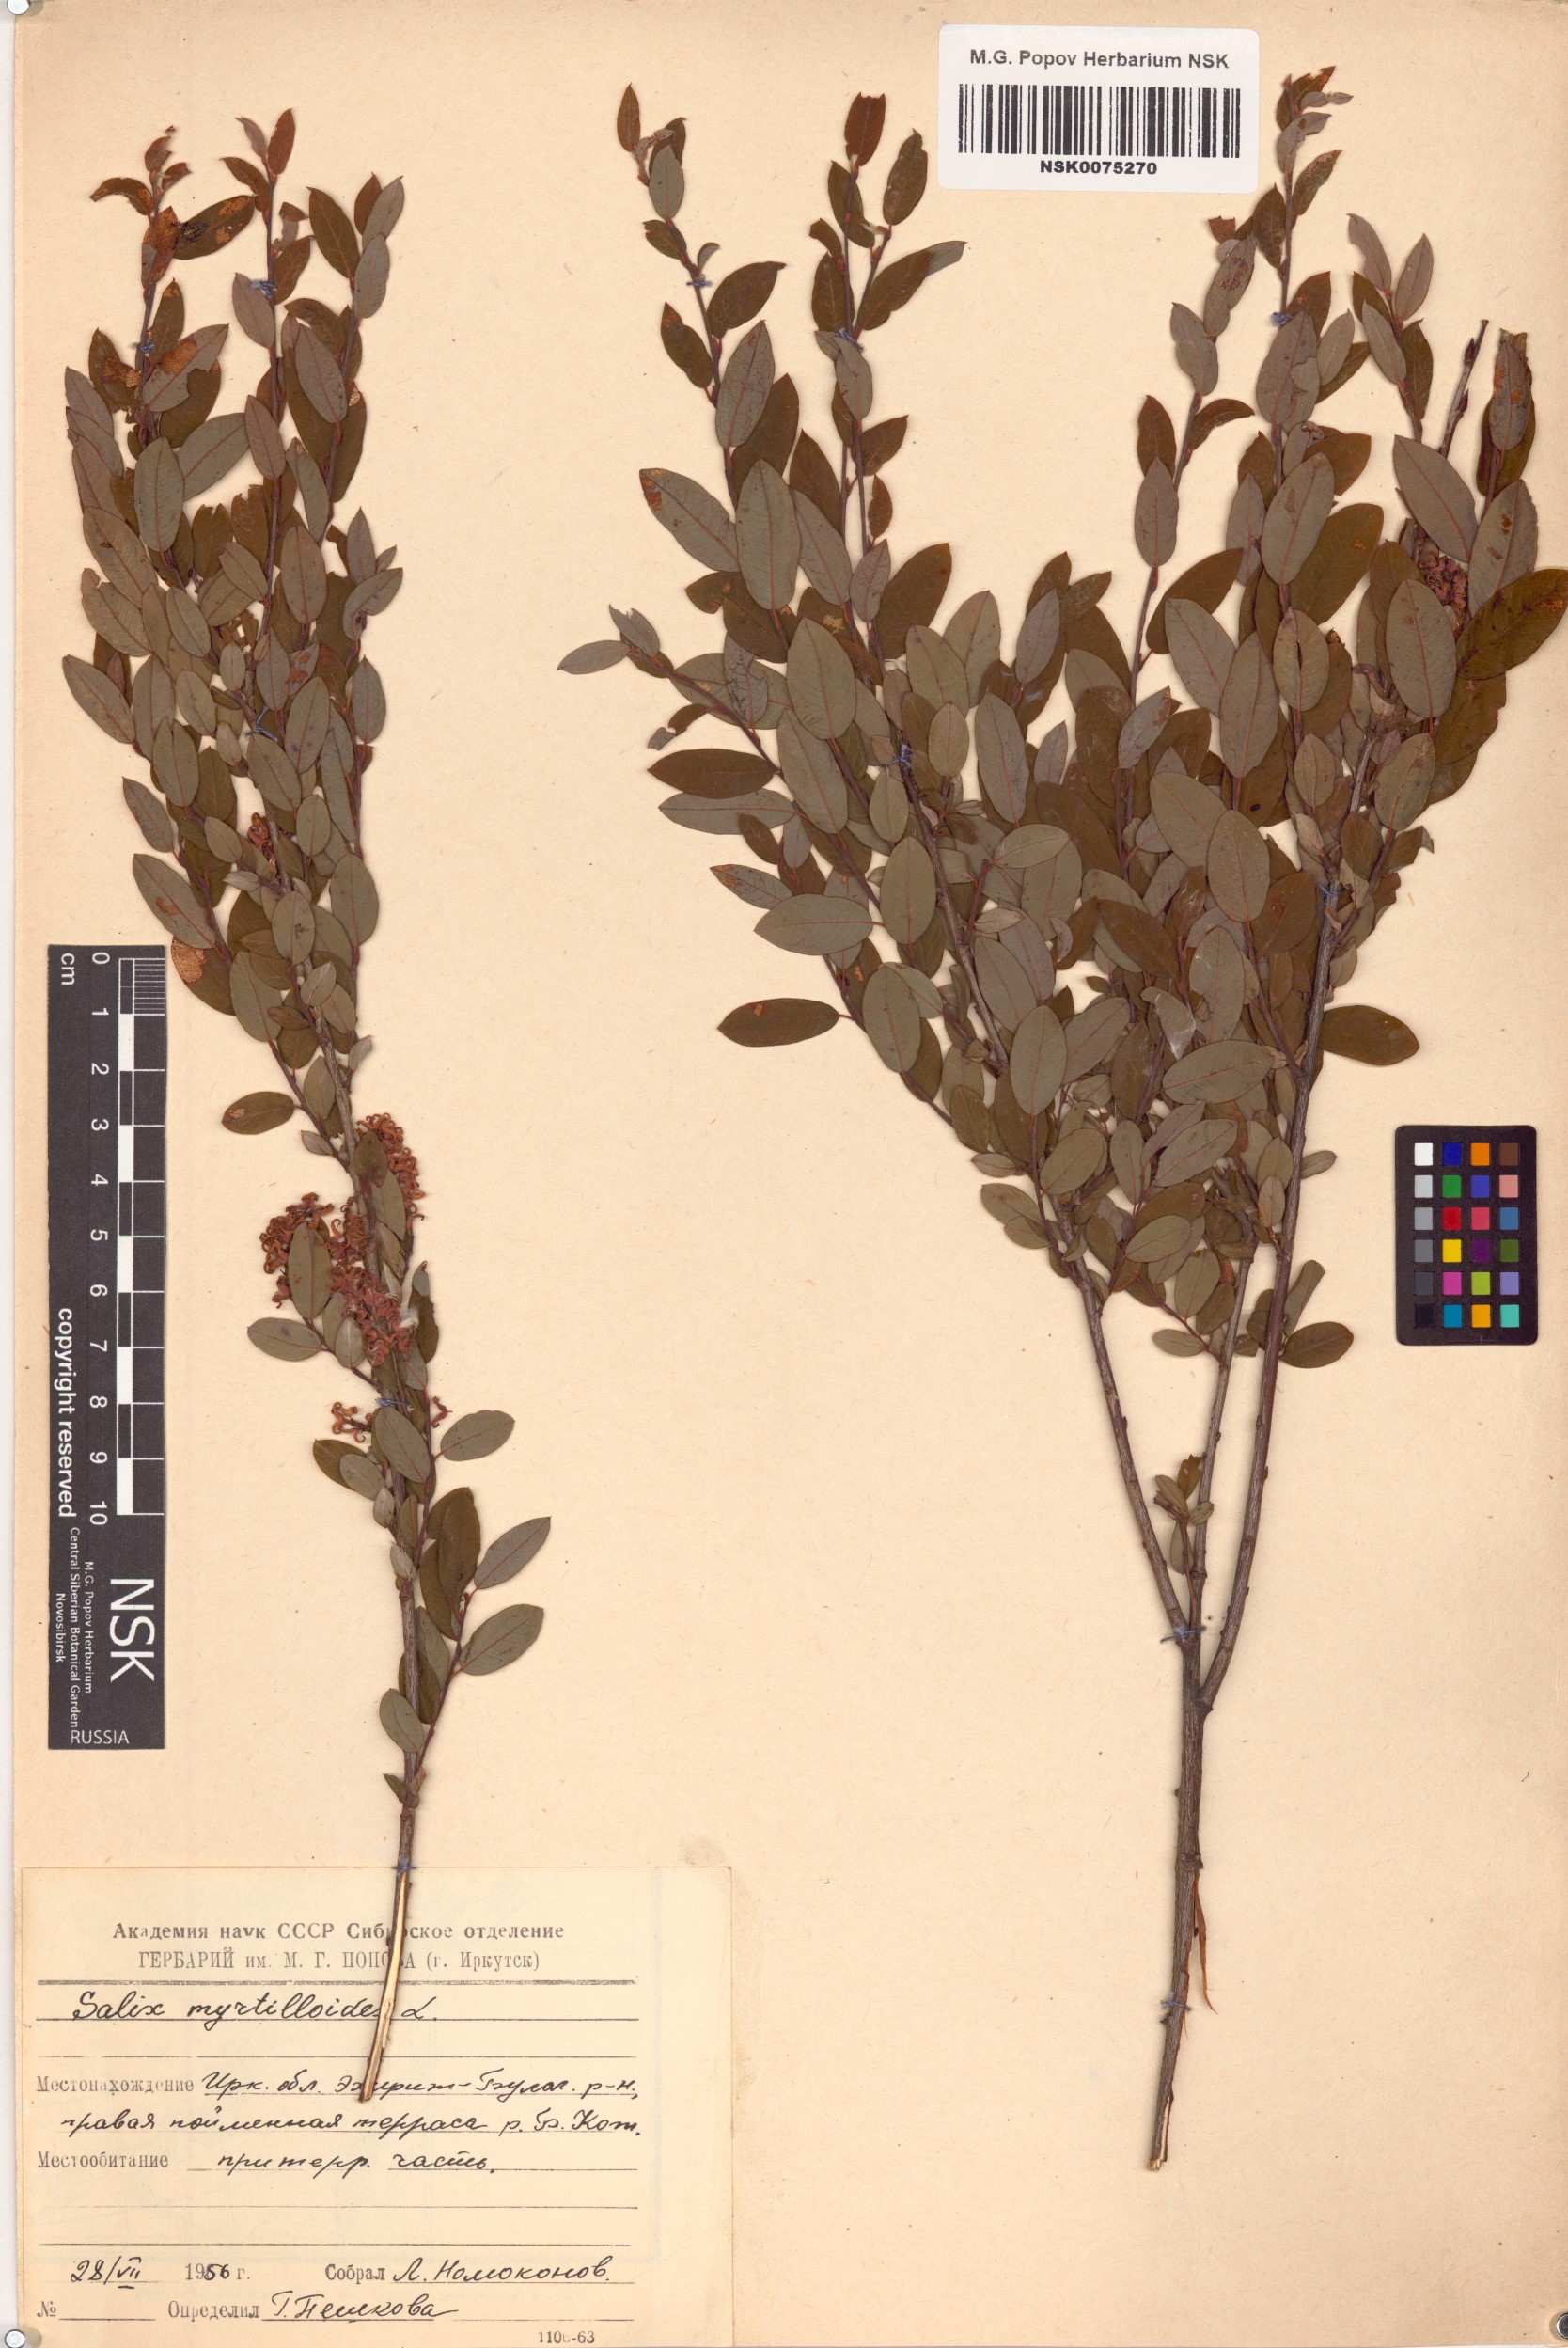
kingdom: Plantae
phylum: Tracheophyta
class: Magnoliopsida
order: Malpighiales
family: Salicaceae
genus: Salix
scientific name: Salix myrtilloides
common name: Myrtle-leaved willow
